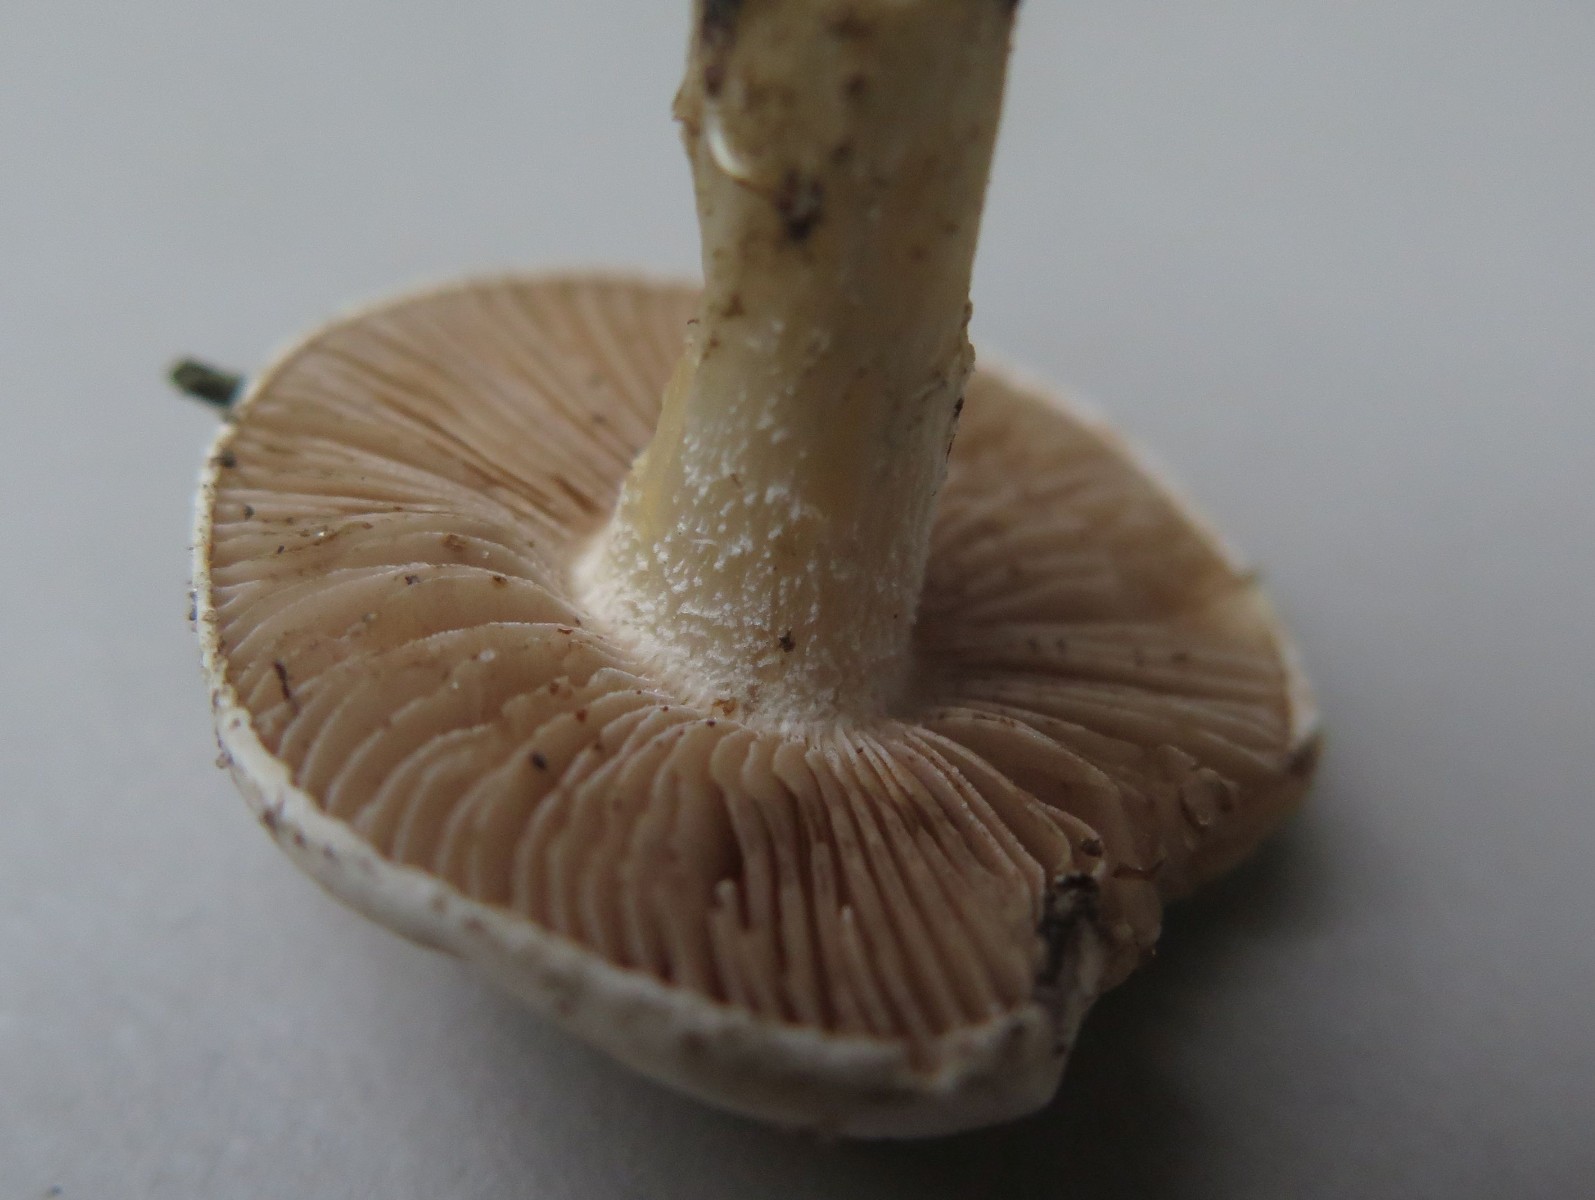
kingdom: Fungi
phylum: Basidiomycota
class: Agaricomycetes
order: Agaricales
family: Hymenogastraceae
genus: Hebeloma
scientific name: Hebeloma
